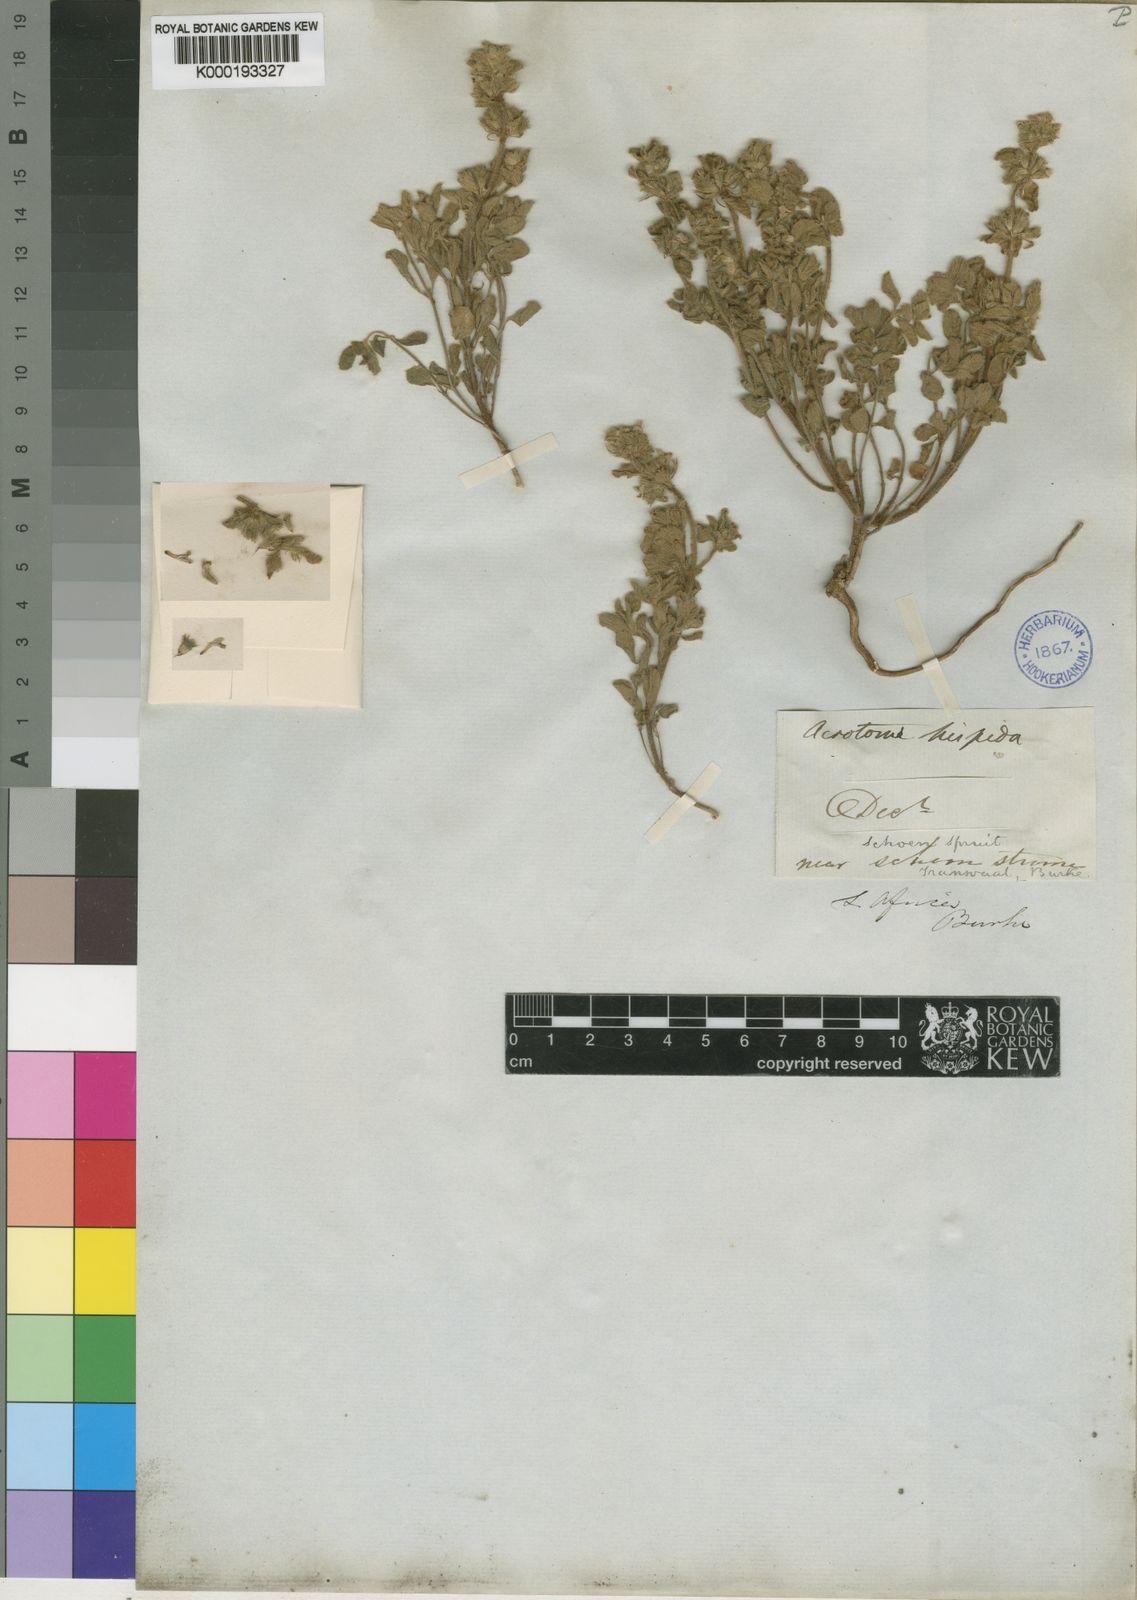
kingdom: Plantae
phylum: Tracheophyta
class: Magnoliopsida
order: Lamiales
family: Lamiaceae
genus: Acrotome
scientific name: Acrotome hispida
